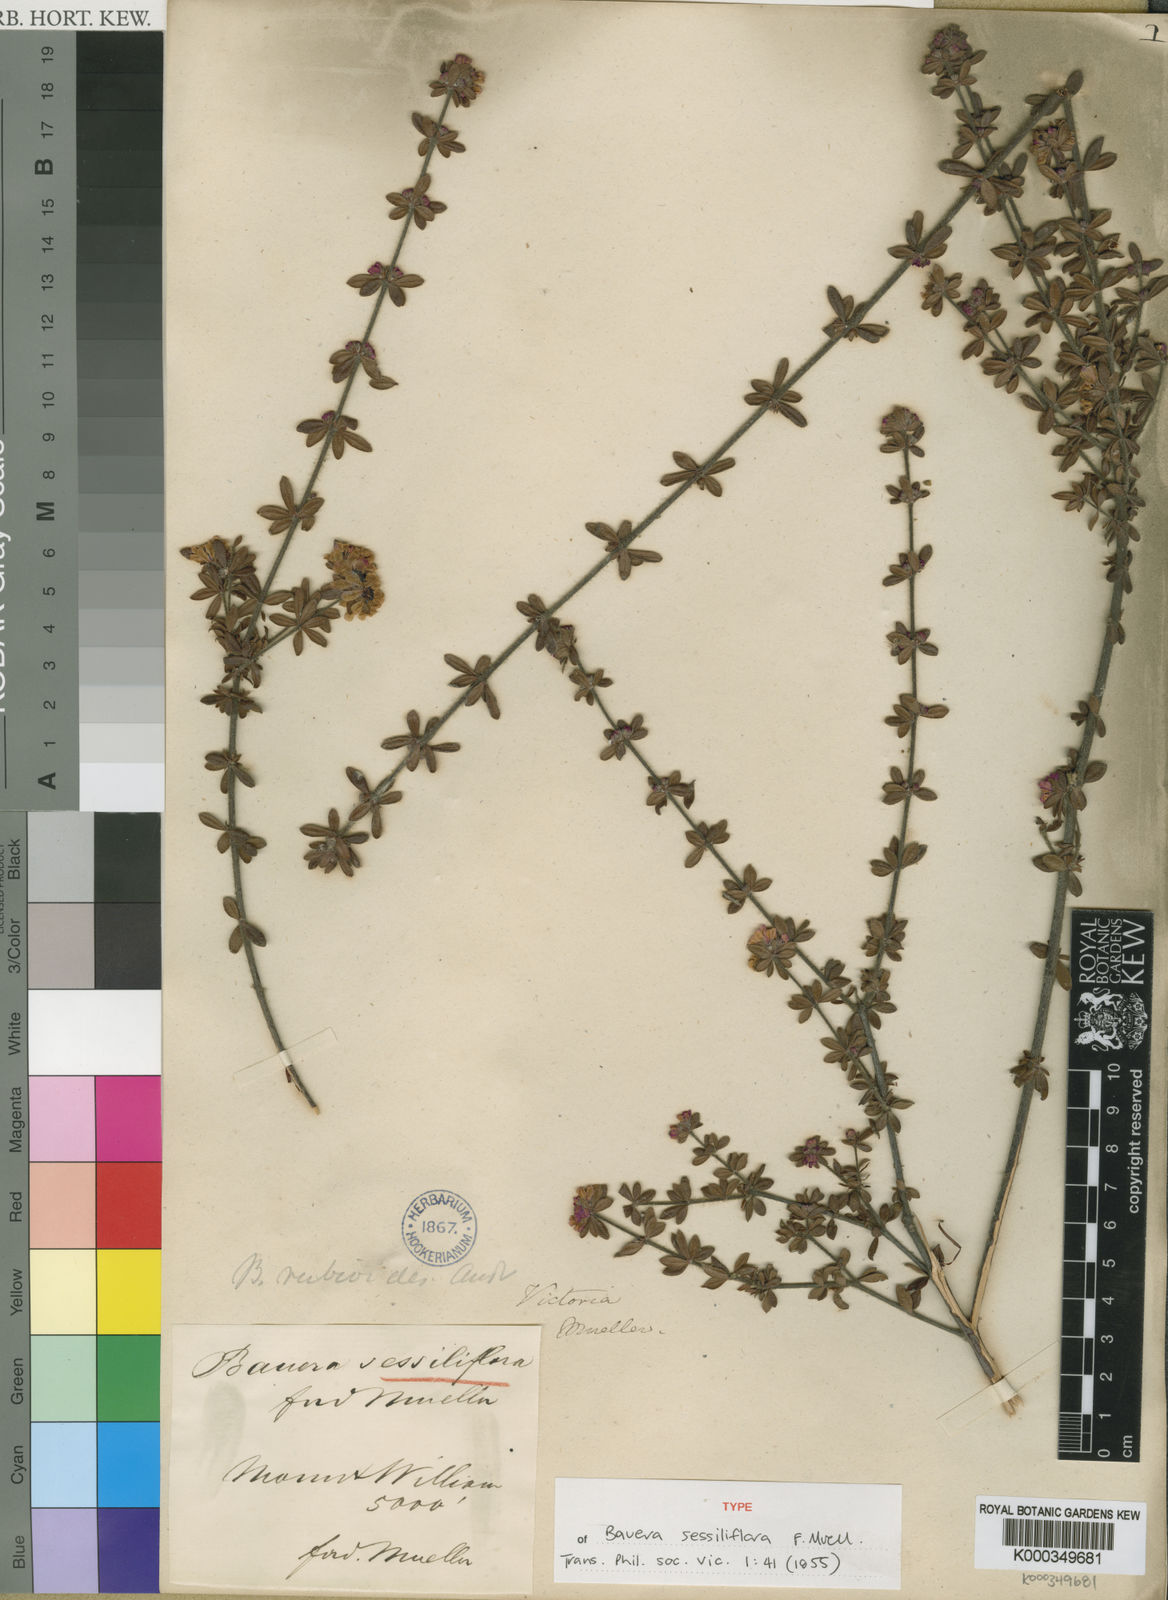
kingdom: Plantae
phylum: Tracheophyta
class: Magnoliopsida
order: Oxalidales
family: Cunoniaceae
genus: Bauera
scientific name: Bauera sessiliflora
